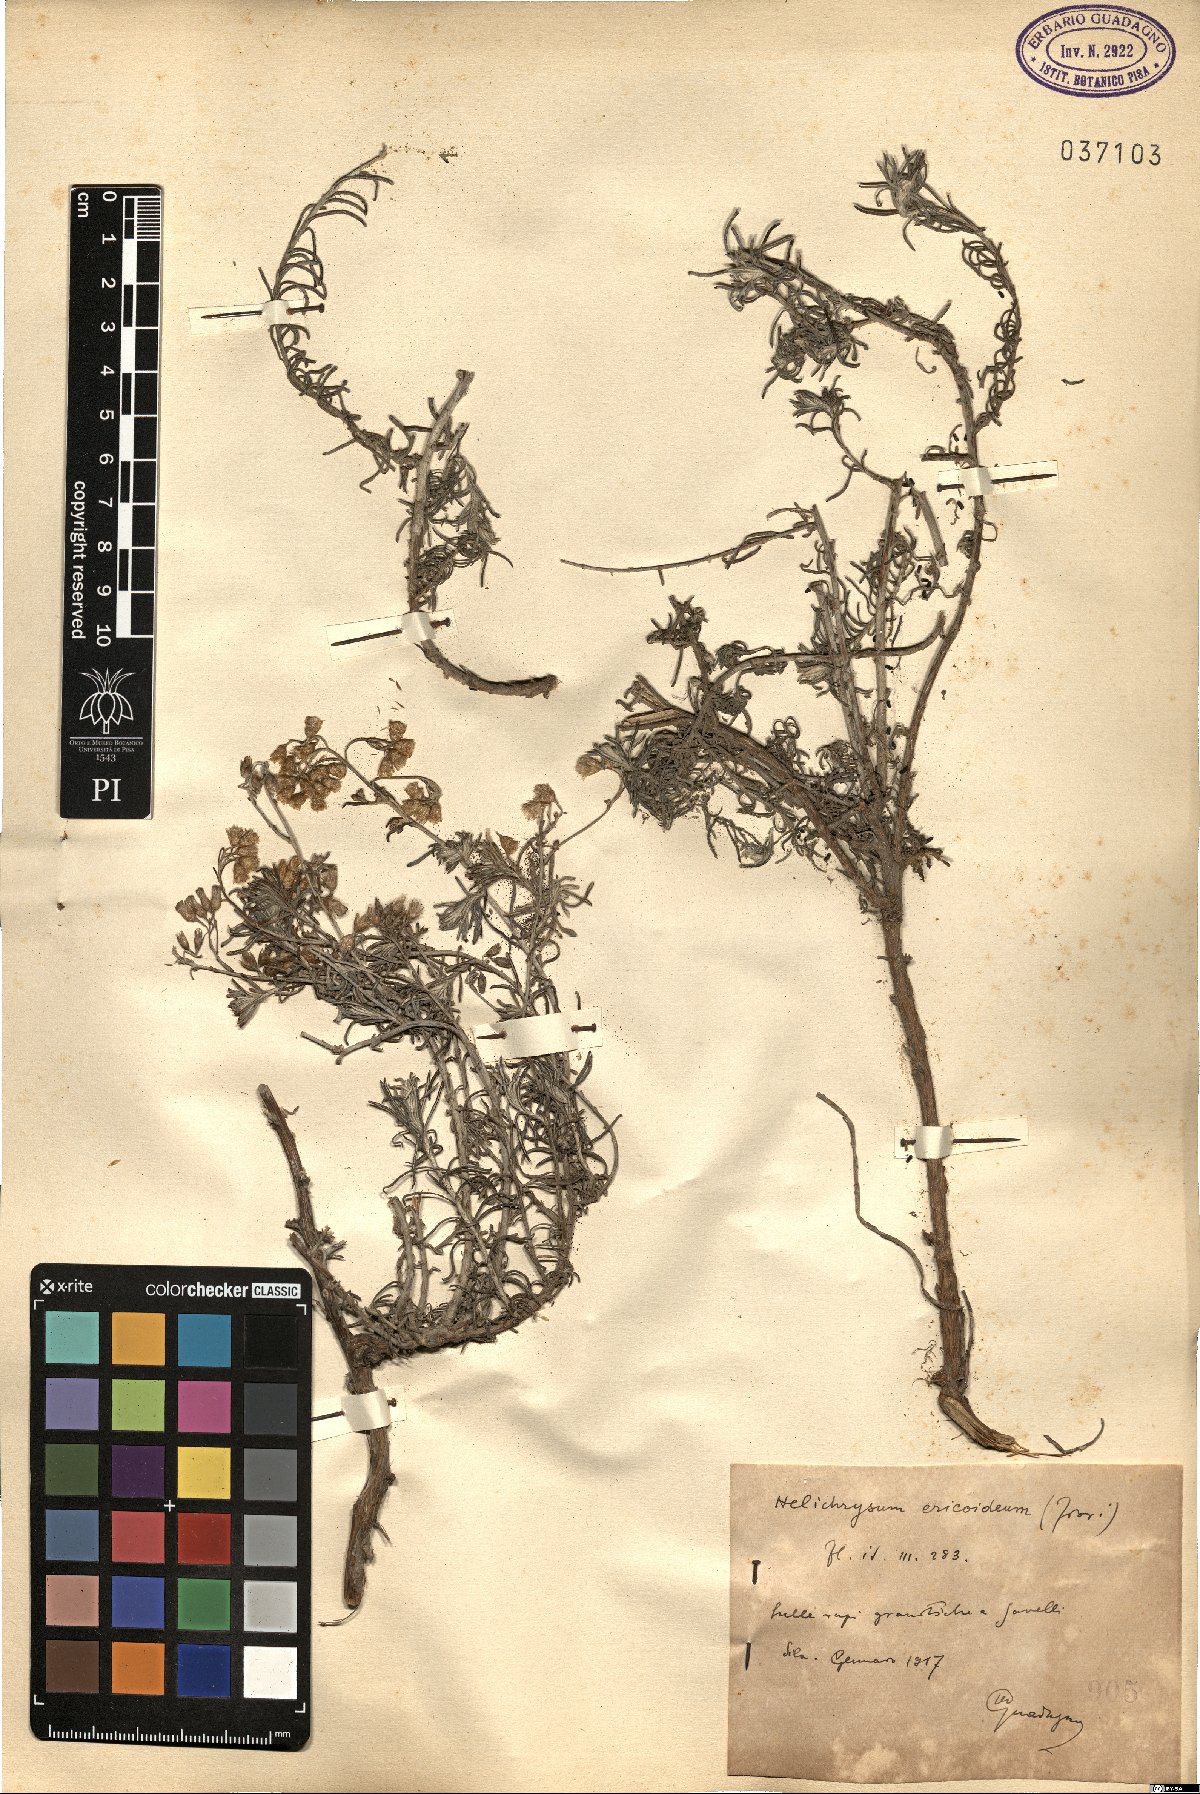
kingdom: Plantae
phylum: Tracheophyta
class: Magnoliopsida
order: Asterales
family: Asteraceae
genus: Helichrysum
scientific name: Helichrysum italicum
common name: Curryplant
